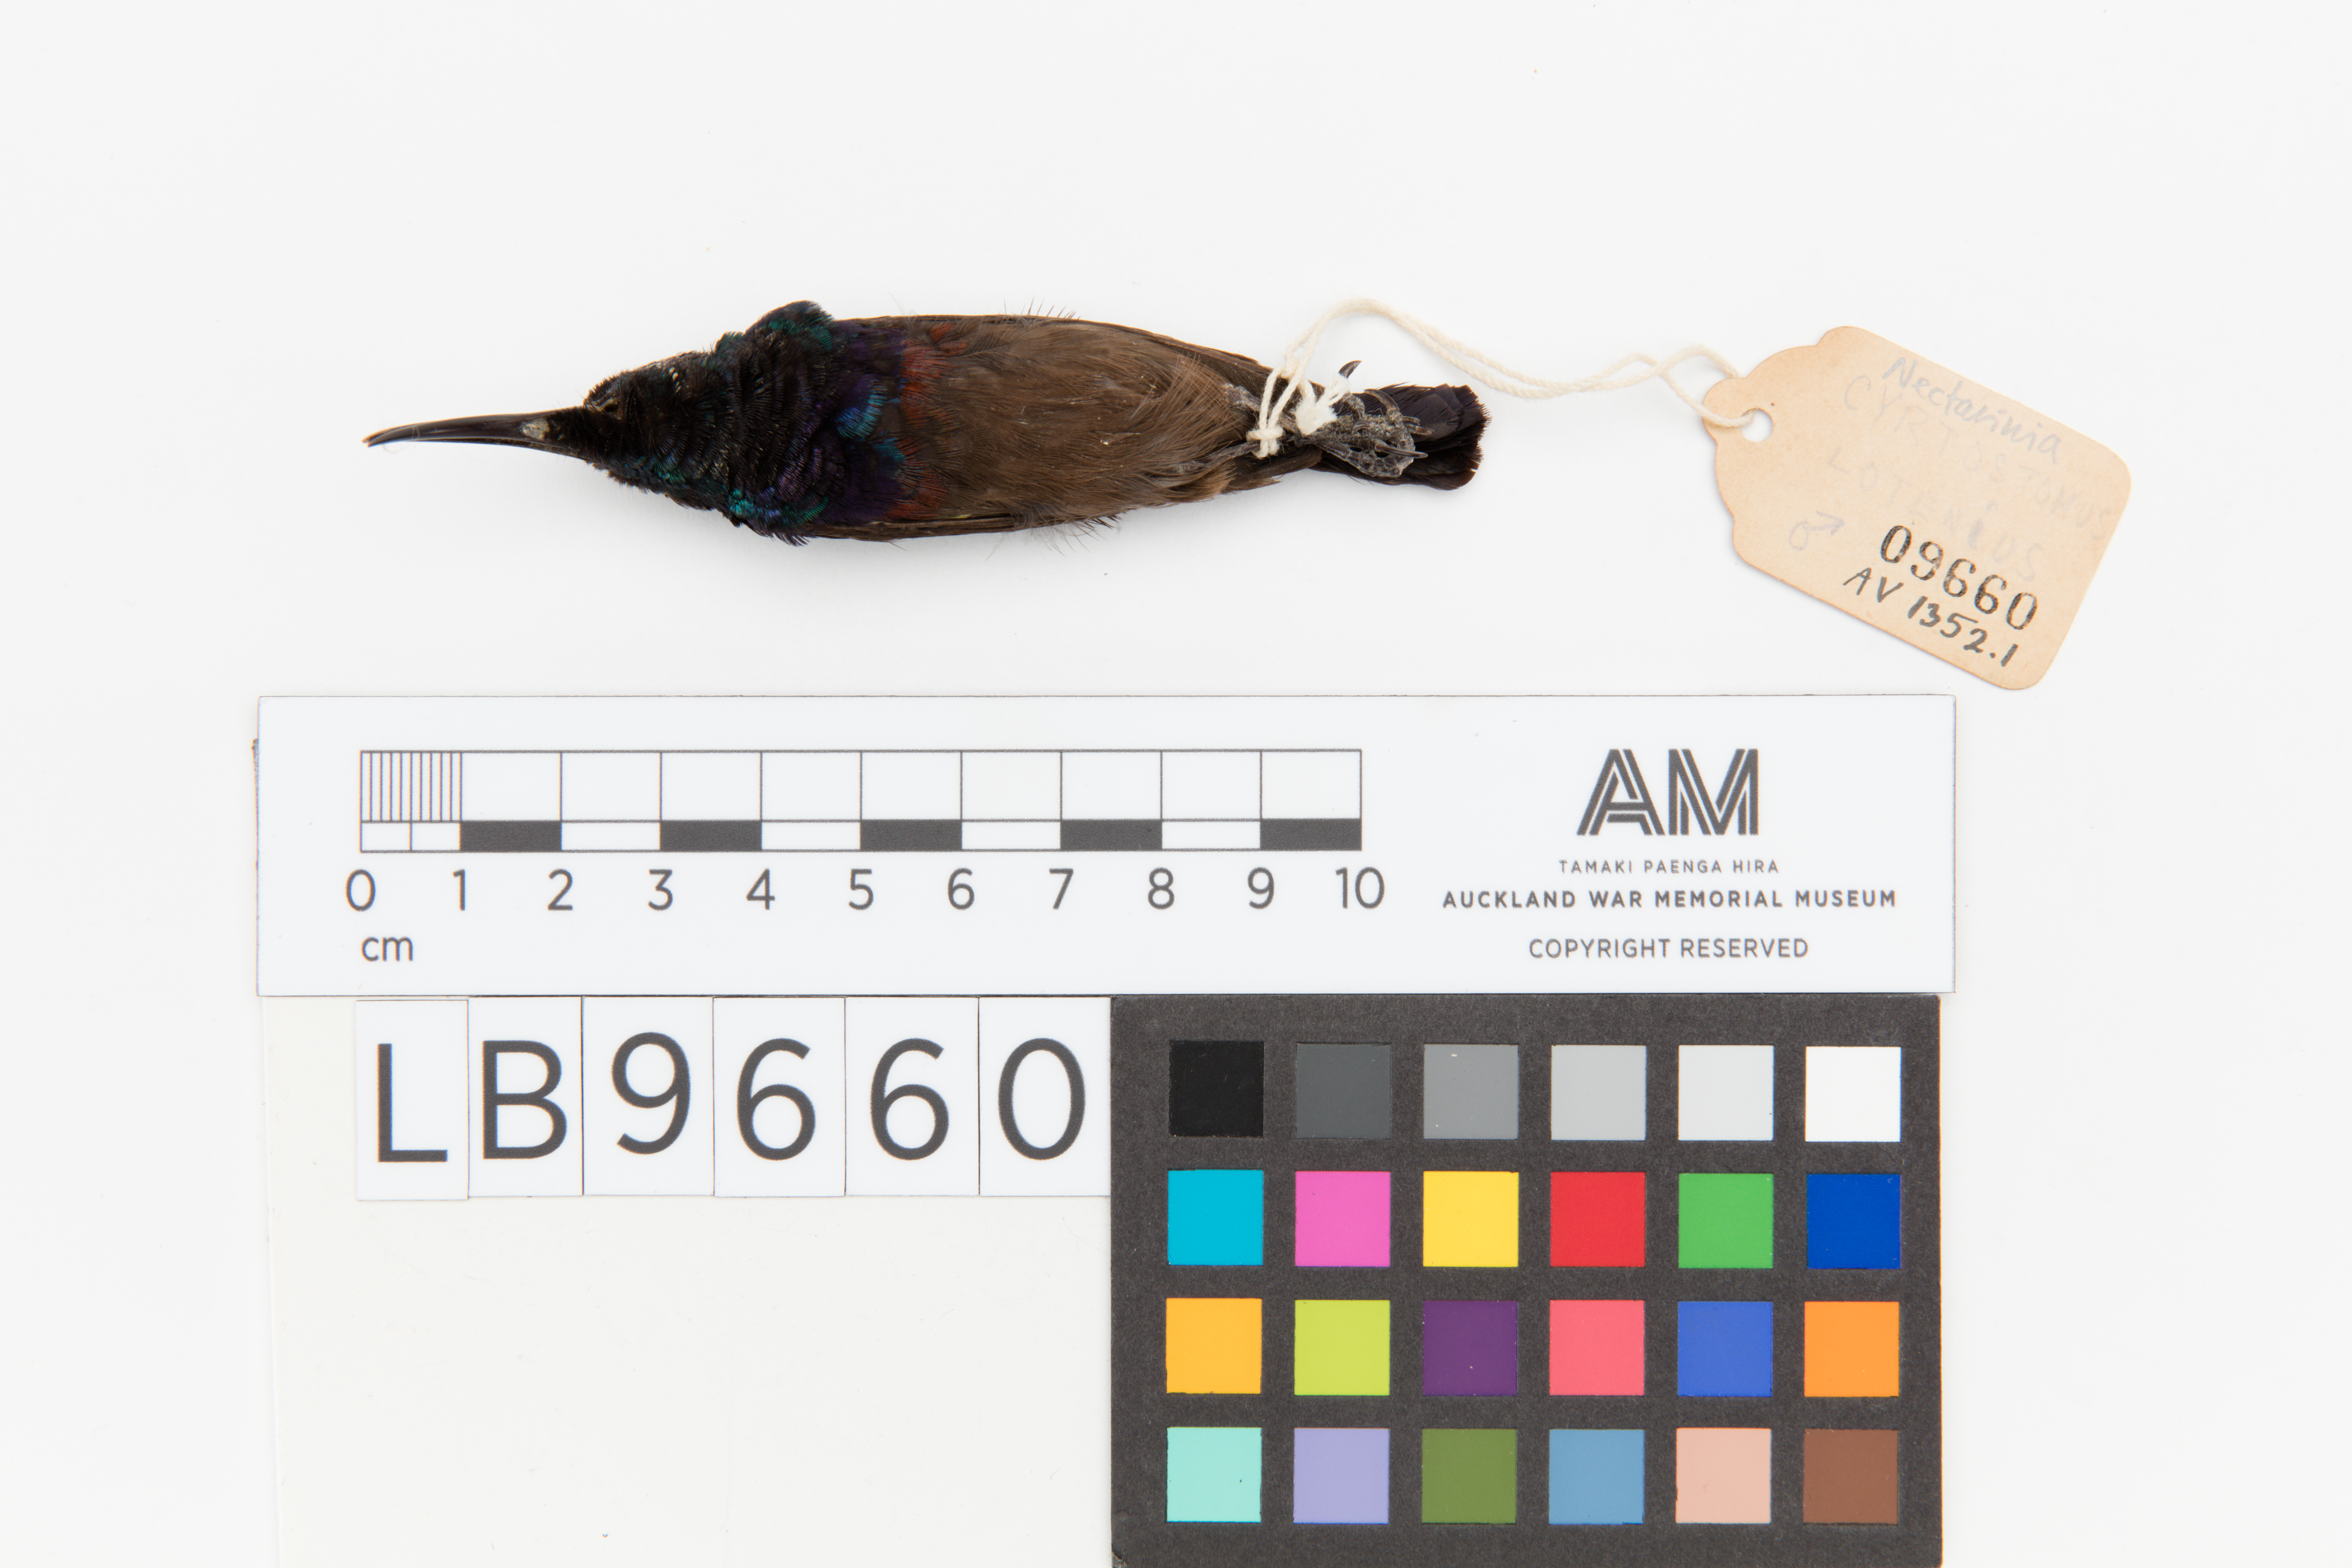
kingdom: Animalia
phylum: Chordata
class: Aves
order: Passeriformes
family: Nectariniidae
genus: Cinnyris
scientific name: Cinnyris lotenius
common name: Loten's sunbird
